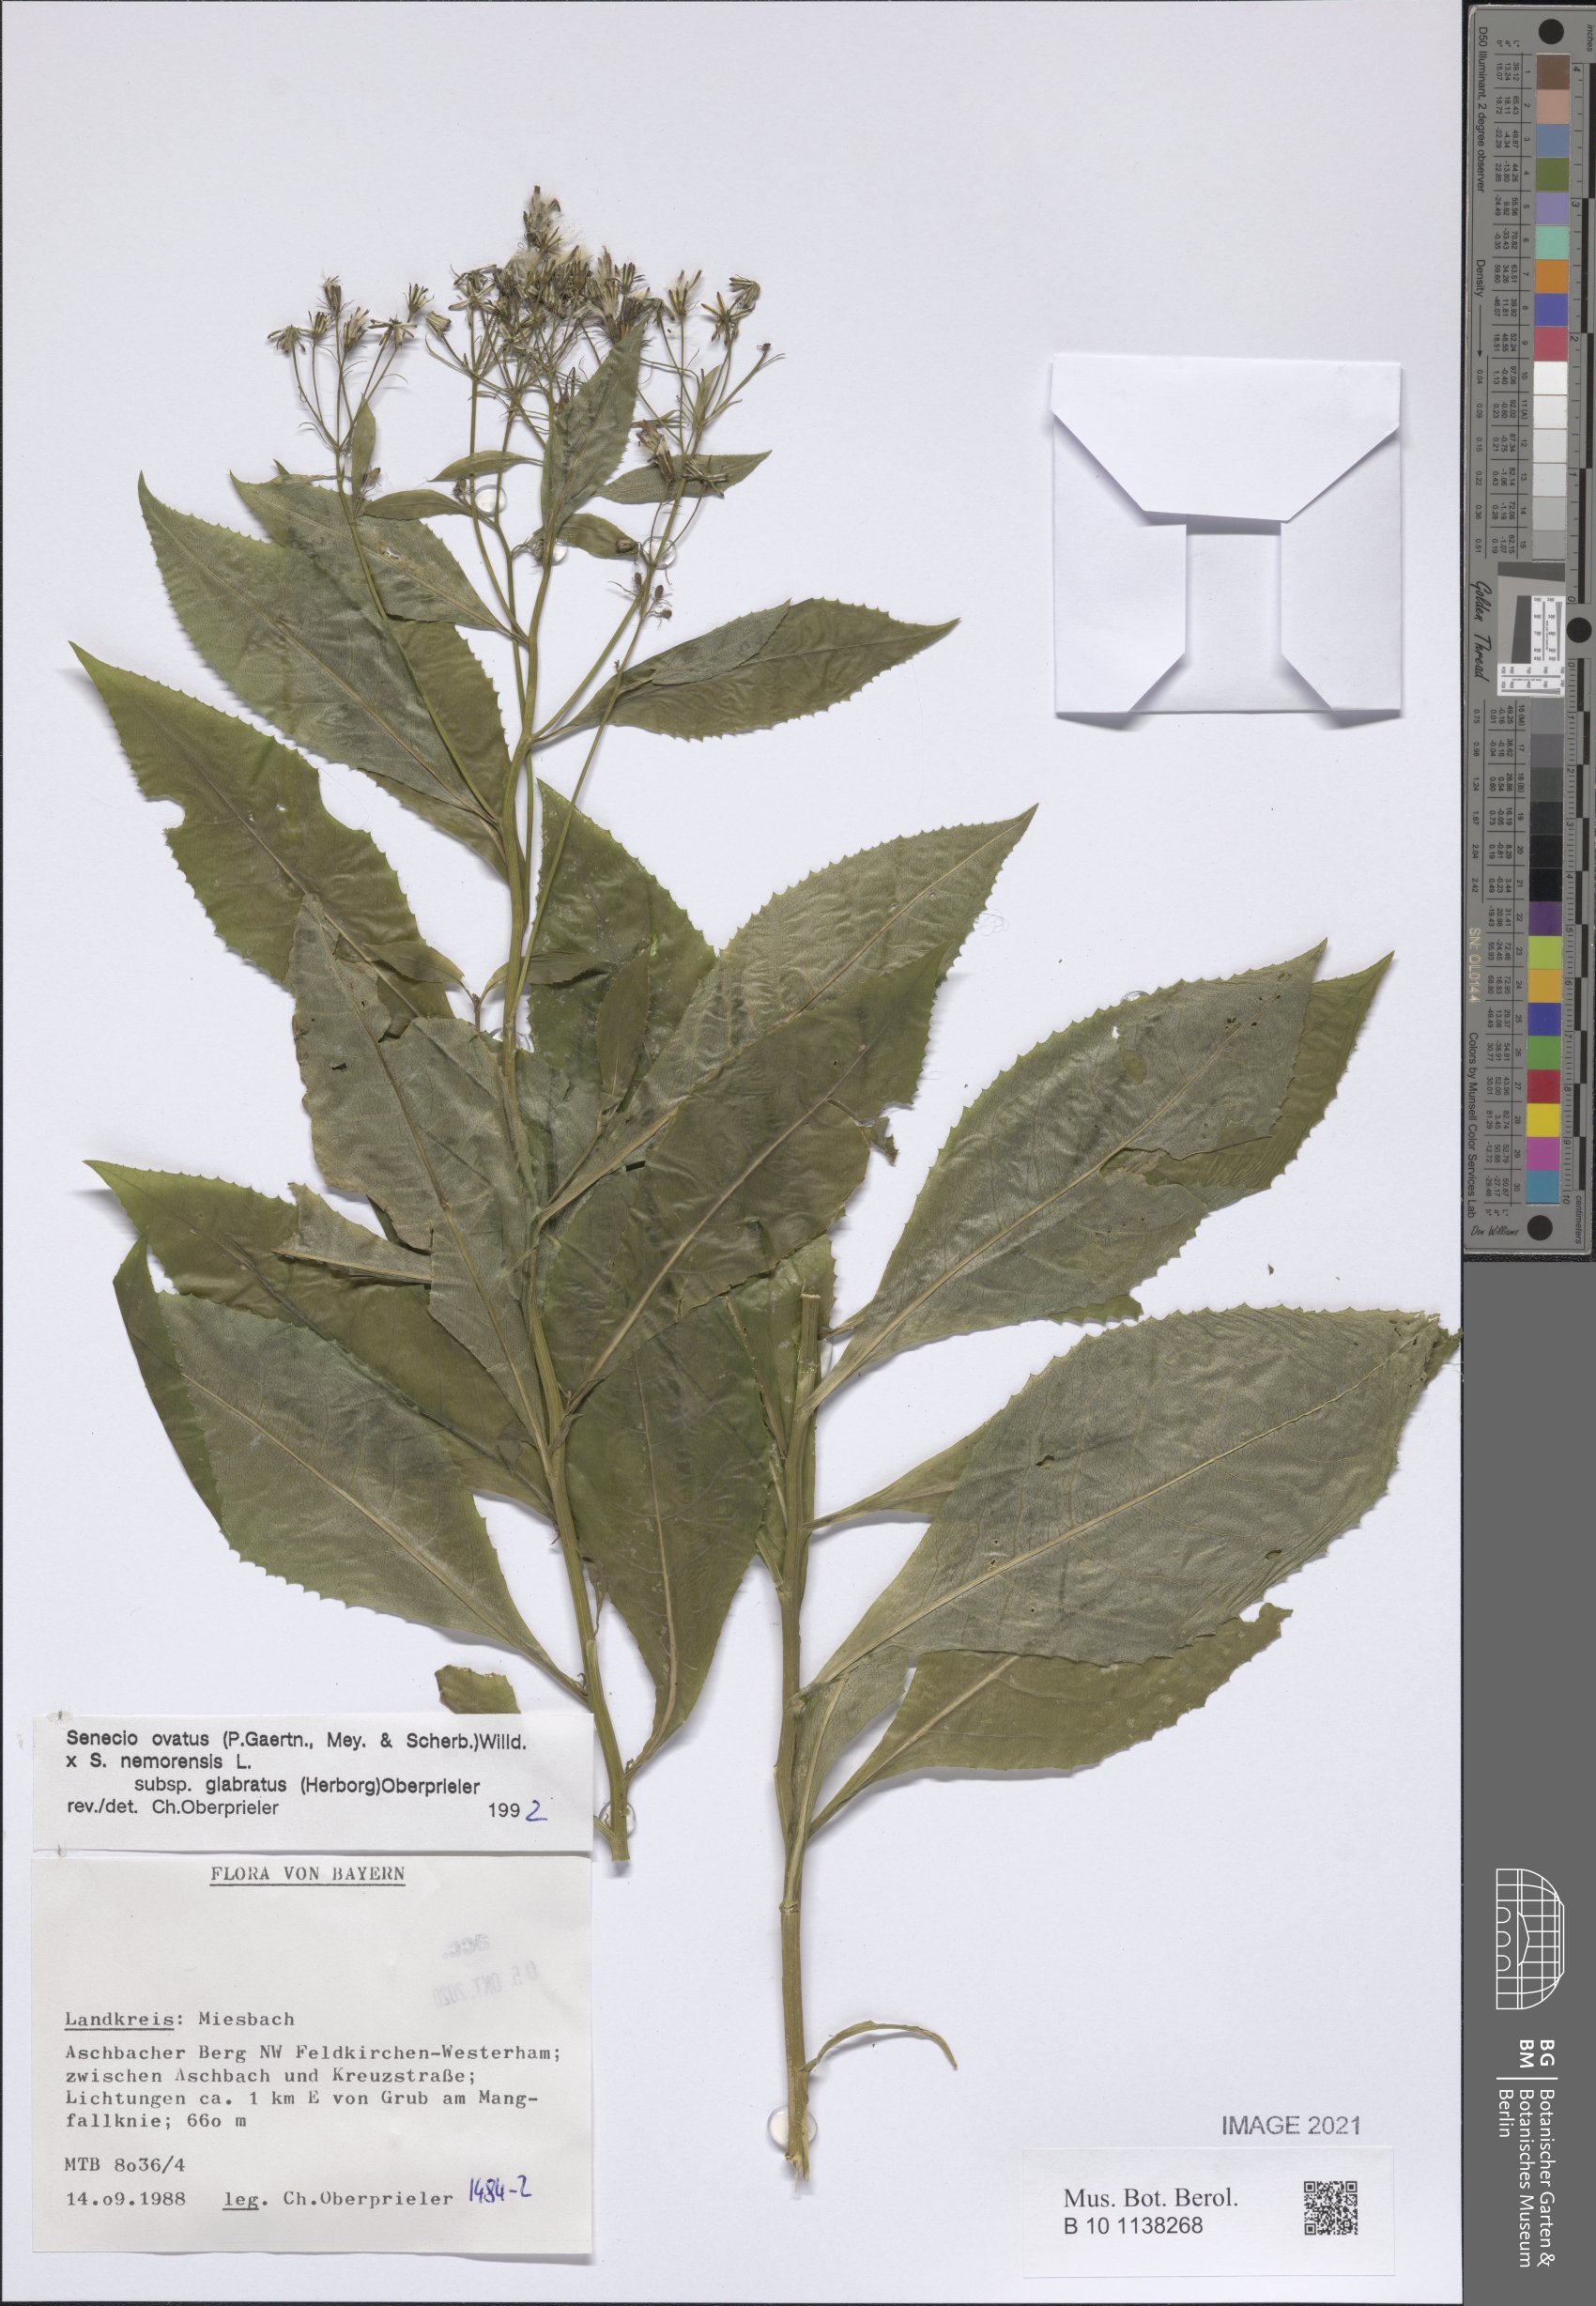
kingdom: Plantae
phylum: Tracheophyta
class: Magnoliopsida
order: Asterales
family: Asteraceae
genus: Senecio
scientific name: Senecio ovatus
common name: Wood ragwort
